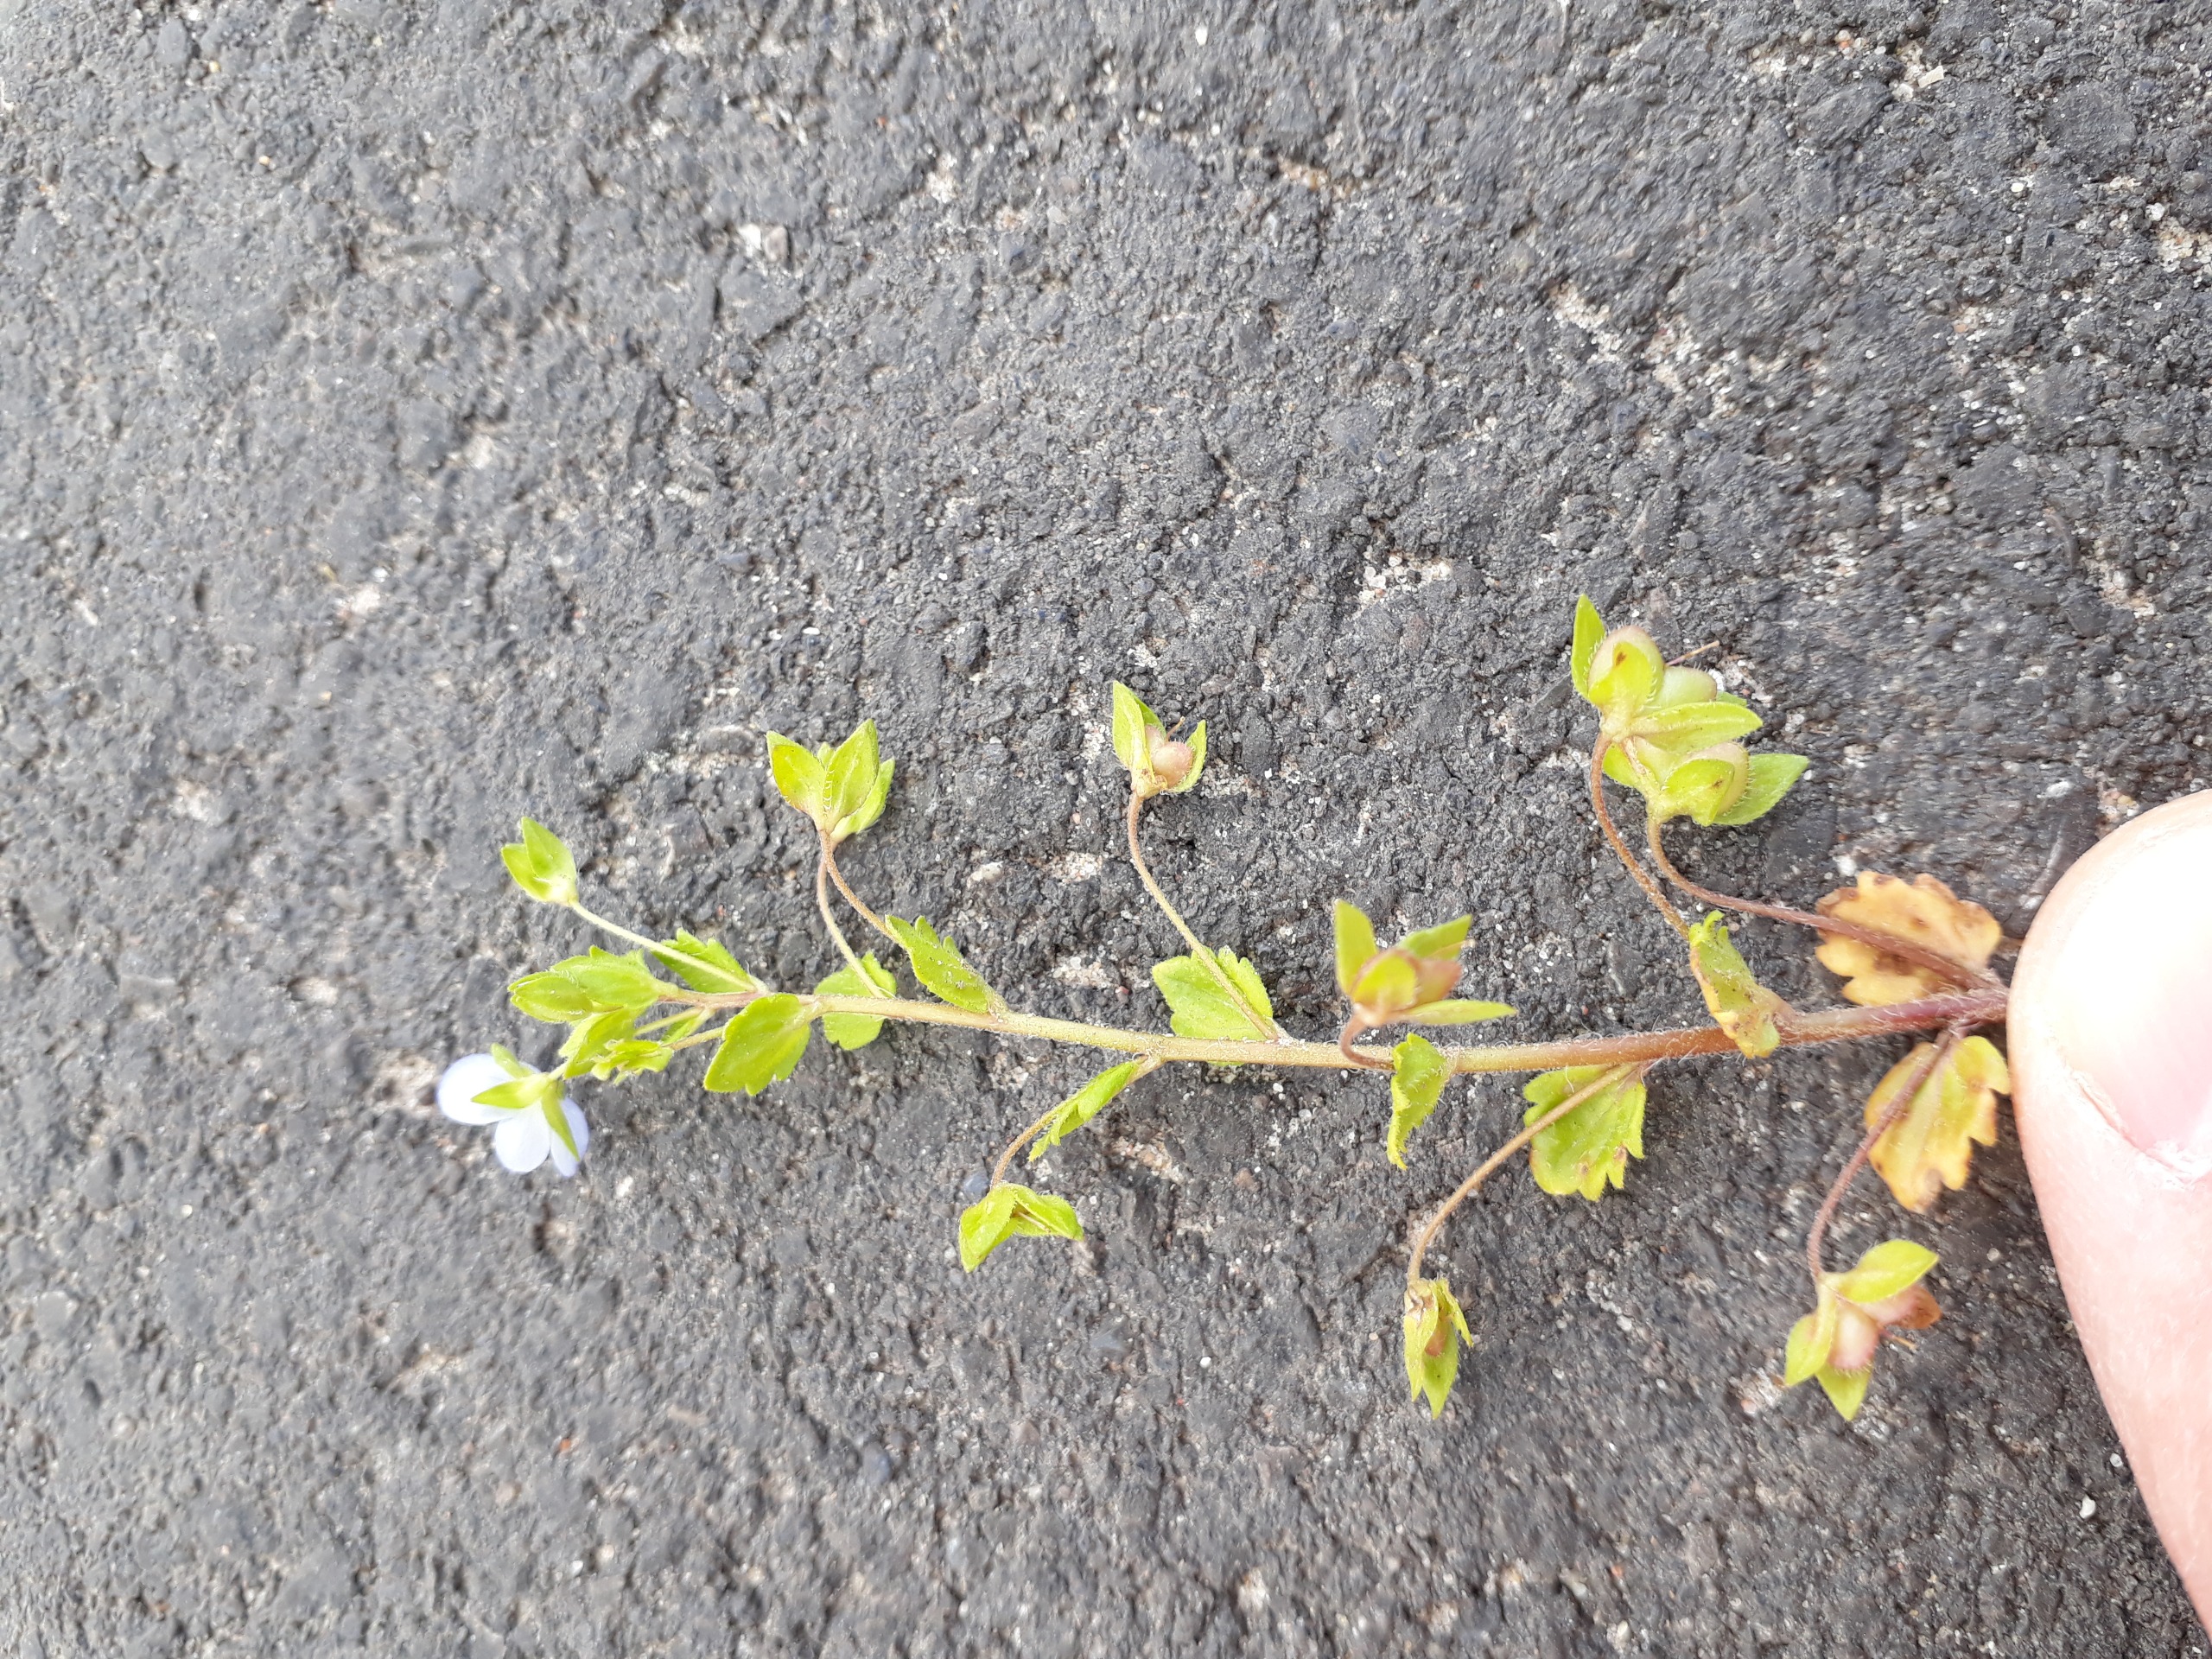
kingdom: Plantae
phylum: Tracheophyta
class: Magnoliopsida
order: Lamiales
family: Plantaginaceae
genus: Veronica
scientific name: Veronica persica
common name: Storkronet ærenpris
